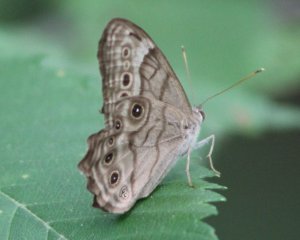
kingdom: Animalia
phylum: Arthropoda
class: Insecta
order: Lepidoptera
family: Nymphalidae
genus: Lethe
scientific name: Lethe anthedon
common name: Northern Pearly-Eye
